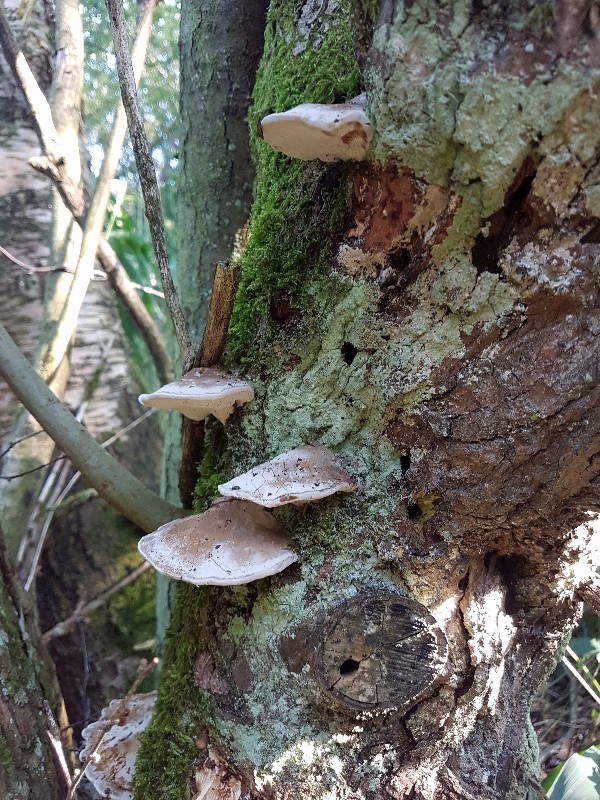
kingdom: Fungi
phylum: Basidiomycota
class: Agaricomycetes
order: Polyporales
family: Polyporaceae
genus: Daedaleopsis
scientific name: Daedaleopsis confragosa
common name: rødmende læderporesvamp
